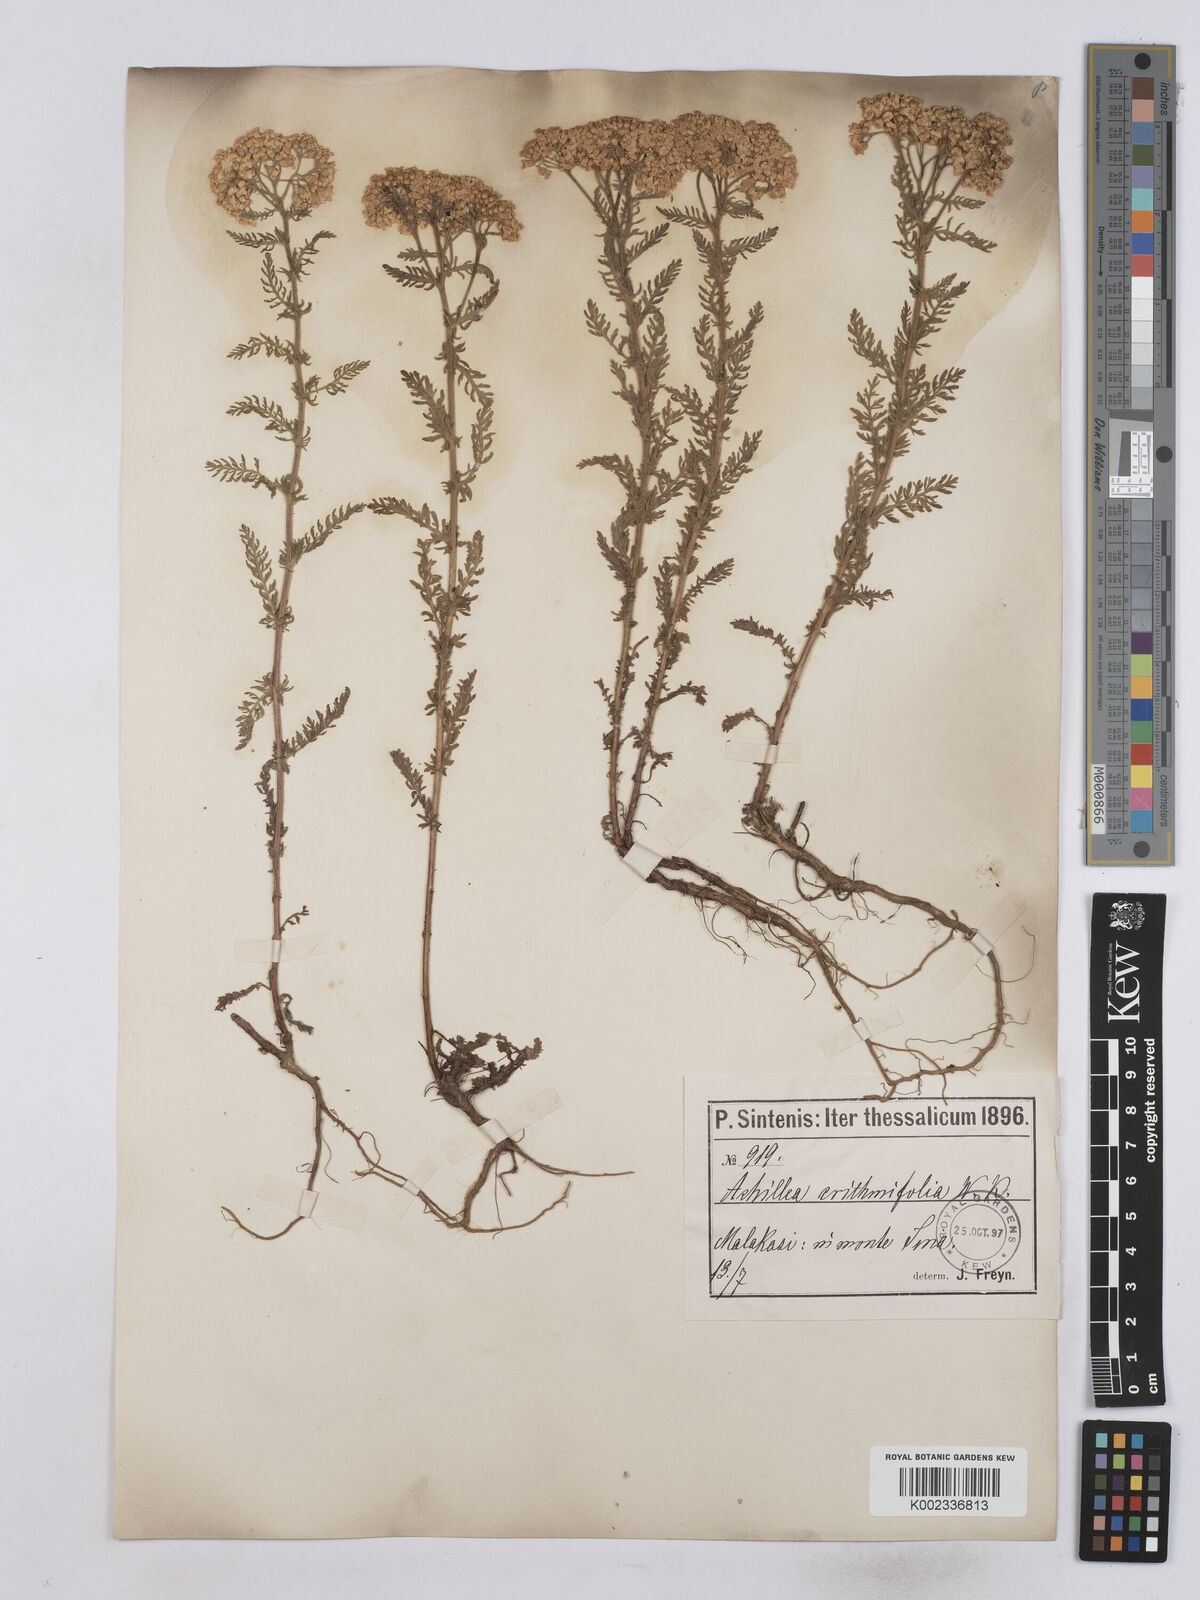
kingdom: Plantae
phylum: Tracheophyta
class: Magnoliopsida
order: Asterales
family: Asteraceae
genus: Achillea
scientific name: Achillea crithmifolia
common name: Yarrow
